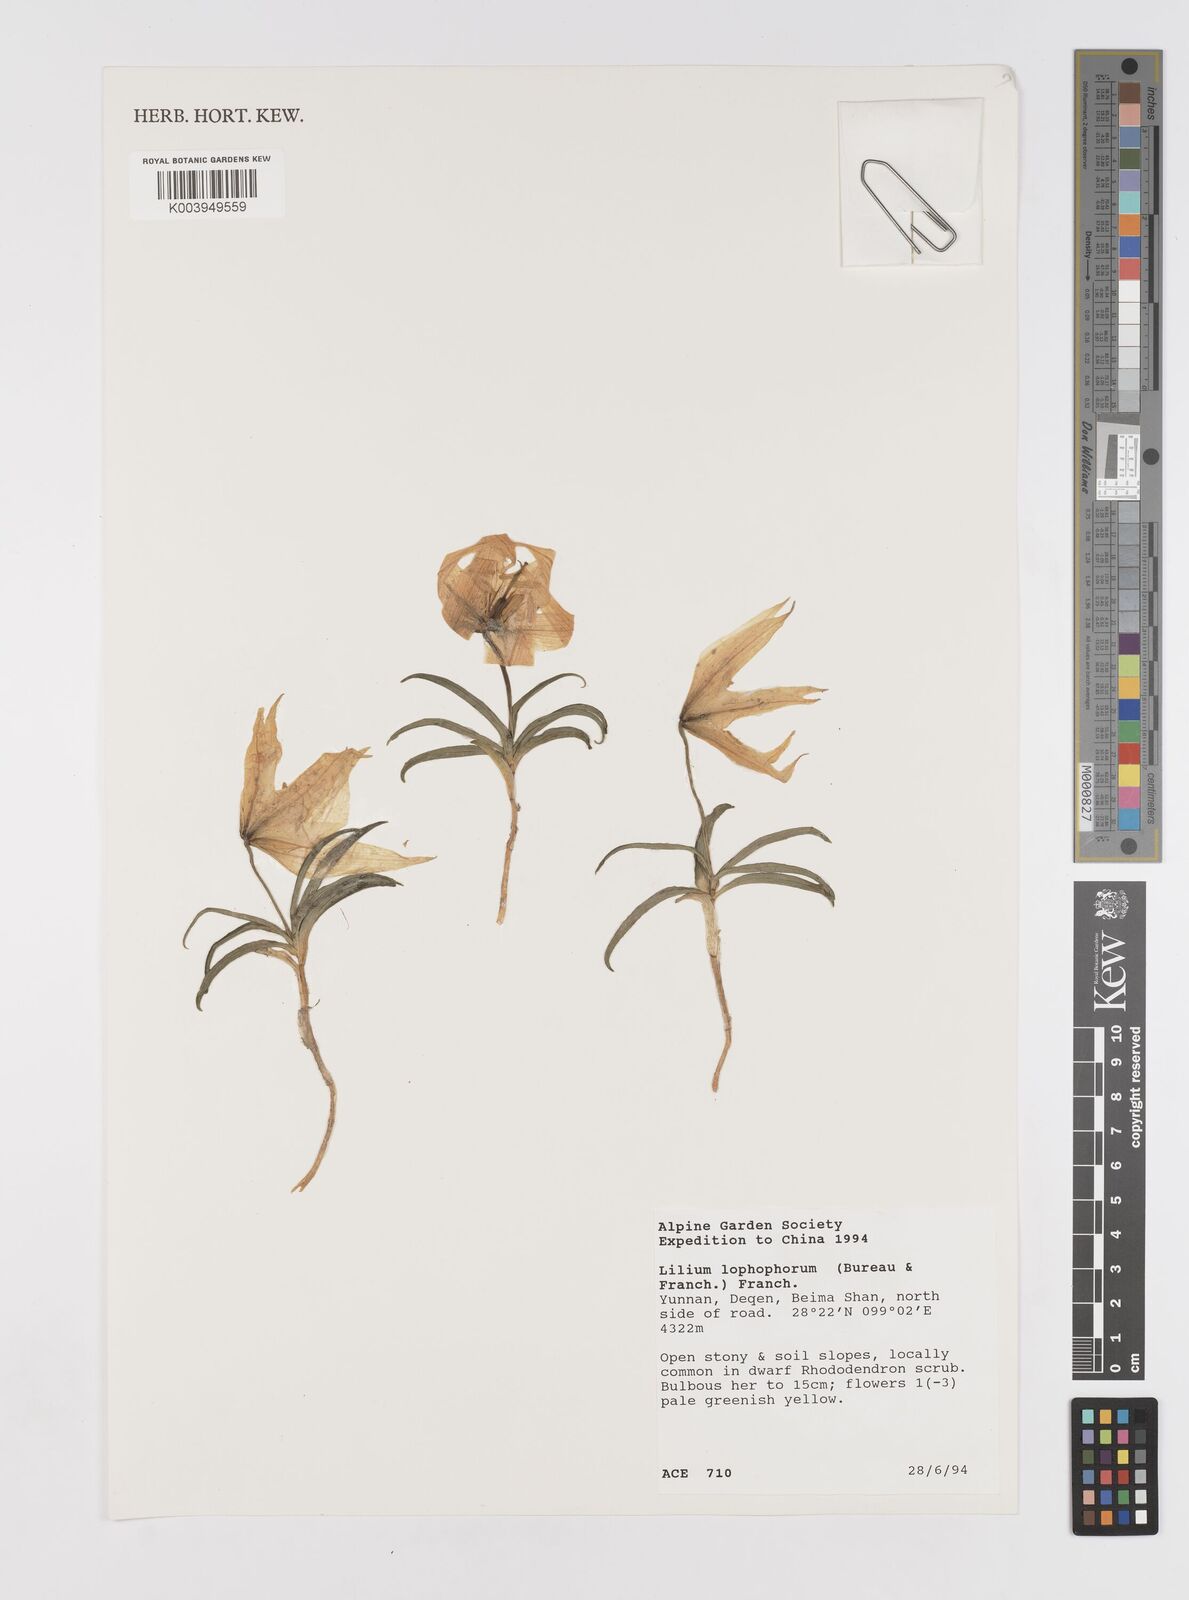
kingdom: Plantae
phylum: Tracheophyta
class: Liliopsida
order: Liliales
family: Liliaceae
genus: Lilium
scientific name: Lilium lophophorum
